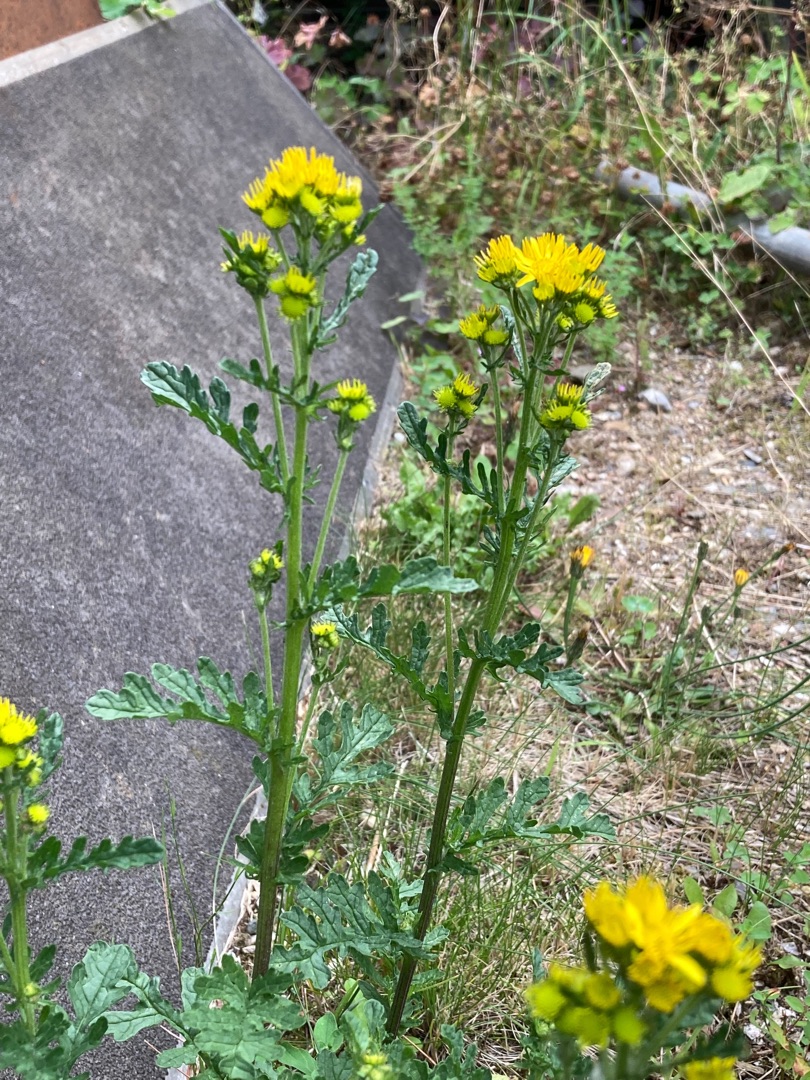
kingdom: Plantae
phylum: Tracheophyta
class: Magnoliopsida
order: Asterales
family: Asteraceae
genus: Jacobaea
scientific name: Jacobaea vulgaris
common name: Eng-brandbæger
